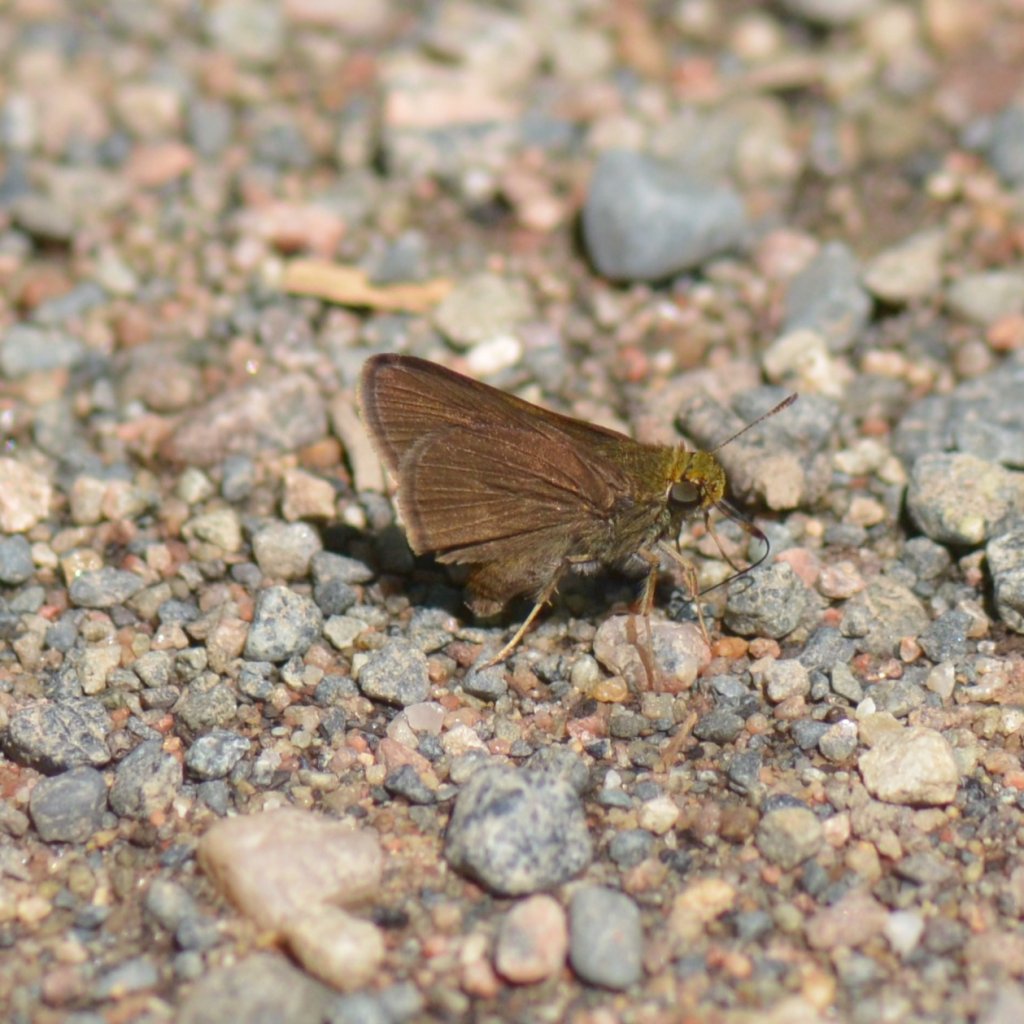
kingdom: Animalia
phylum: Arthropoda
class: Insecta
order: Lepidoptera
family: Hesperiidae
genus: Euphyes
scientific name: Euphyes vestris
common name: Dun Skipper
